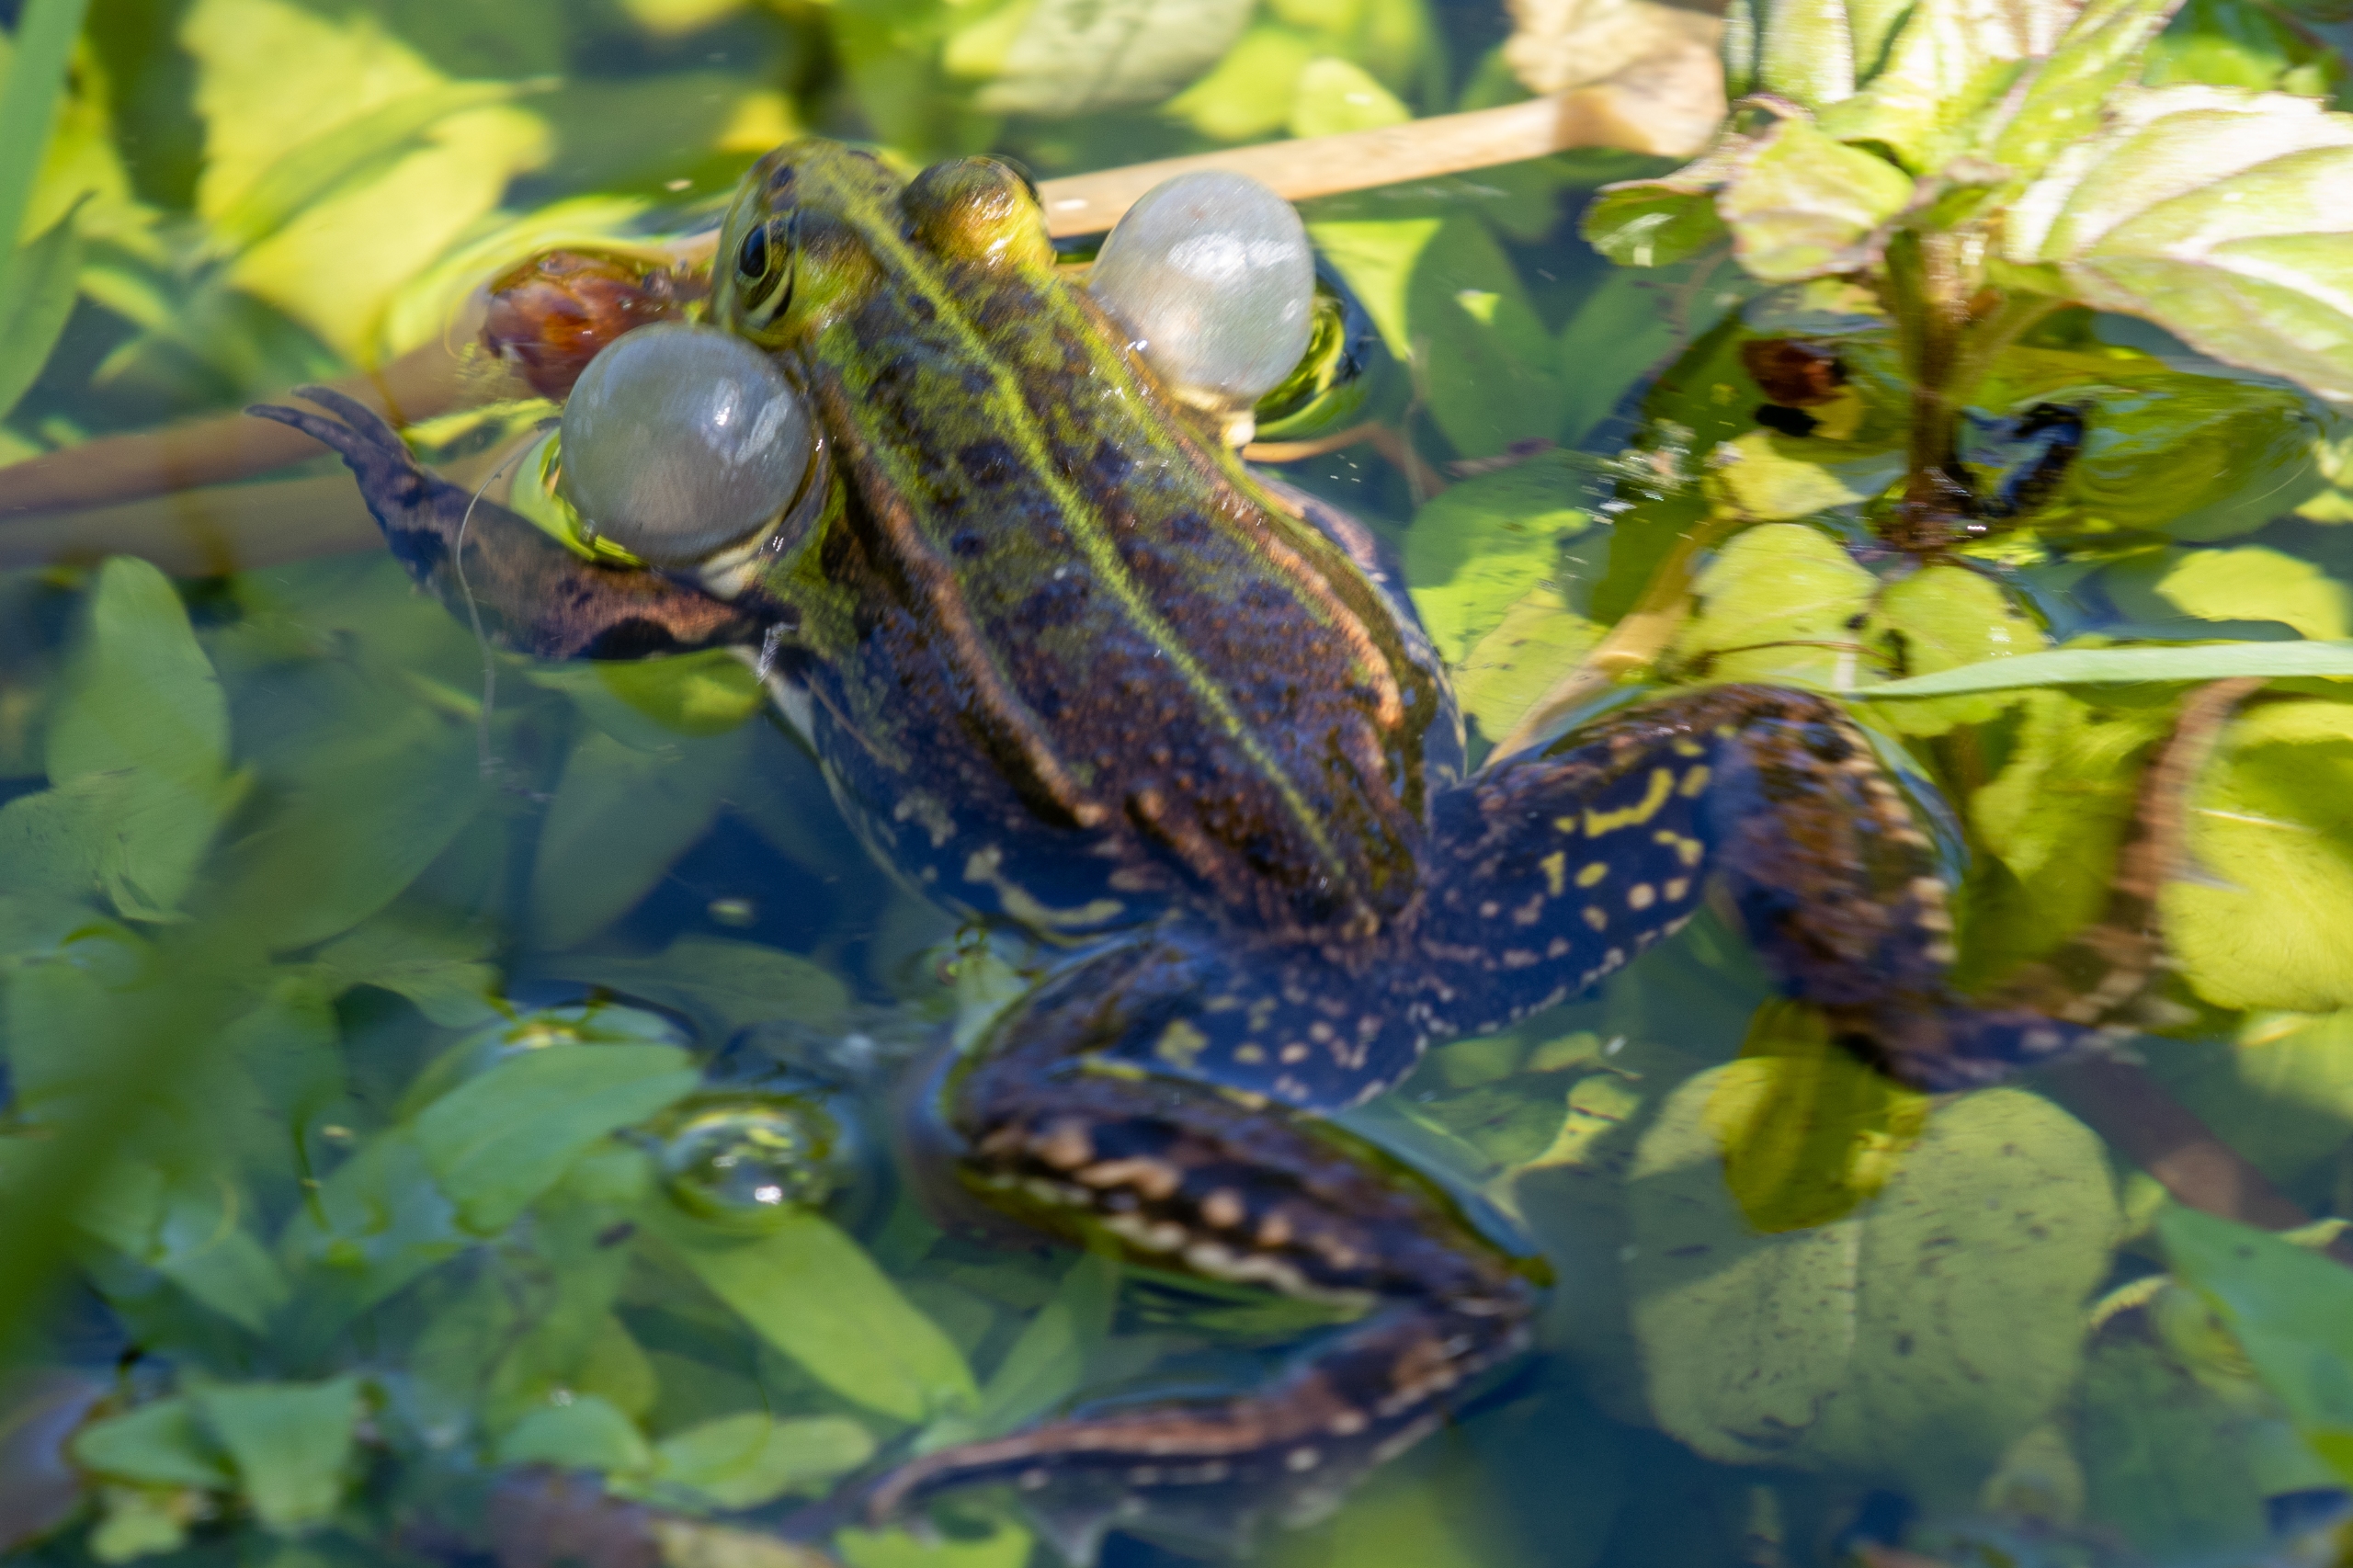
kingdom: Animalia
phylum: Chordata
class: Amphibia
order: Anura
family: Ranidae
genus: Pelophylax
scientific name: Pelophylax lessonae
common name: Grøn frø
